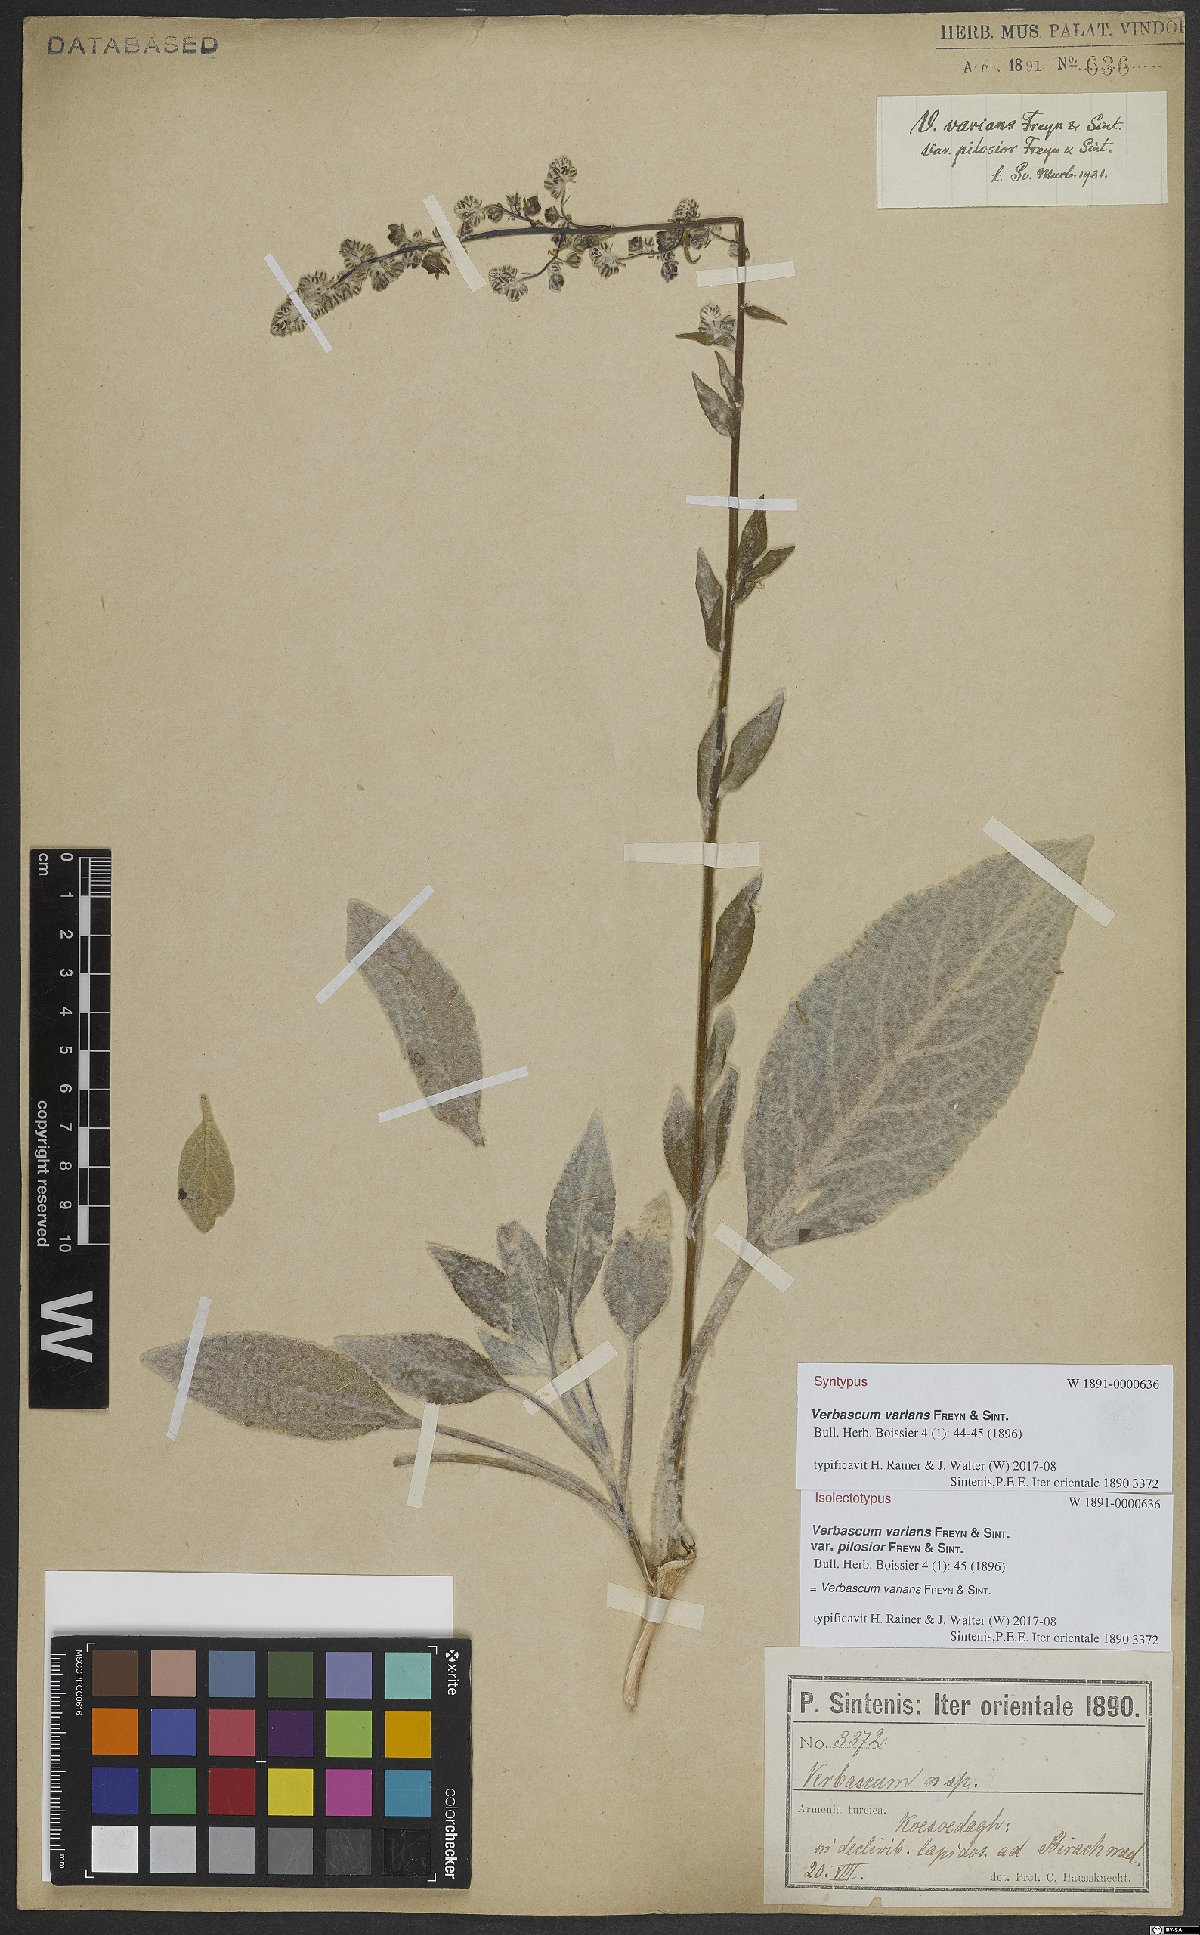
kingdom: Plantae
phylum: Tracheophyta
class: Magnoliopsida
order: Lamiales
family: Scrophulariaceae
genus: Verbascum
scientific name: Verbascum varians
